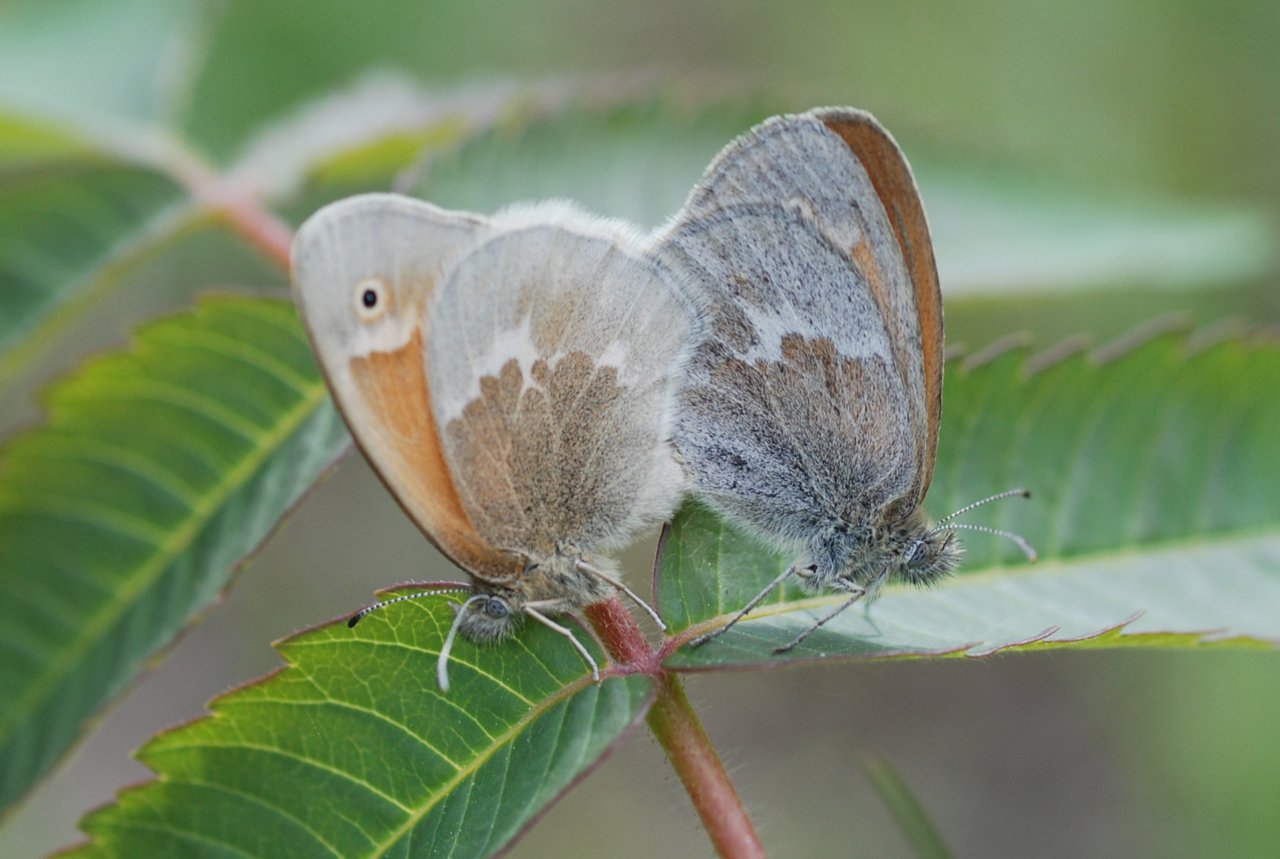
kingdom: Animalia
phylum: Arthropoda
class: Insecta
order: Lepidoptera
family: Nymphalidae
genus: Coenonympha
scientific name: Coenonympha tullia
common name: Large Heath
